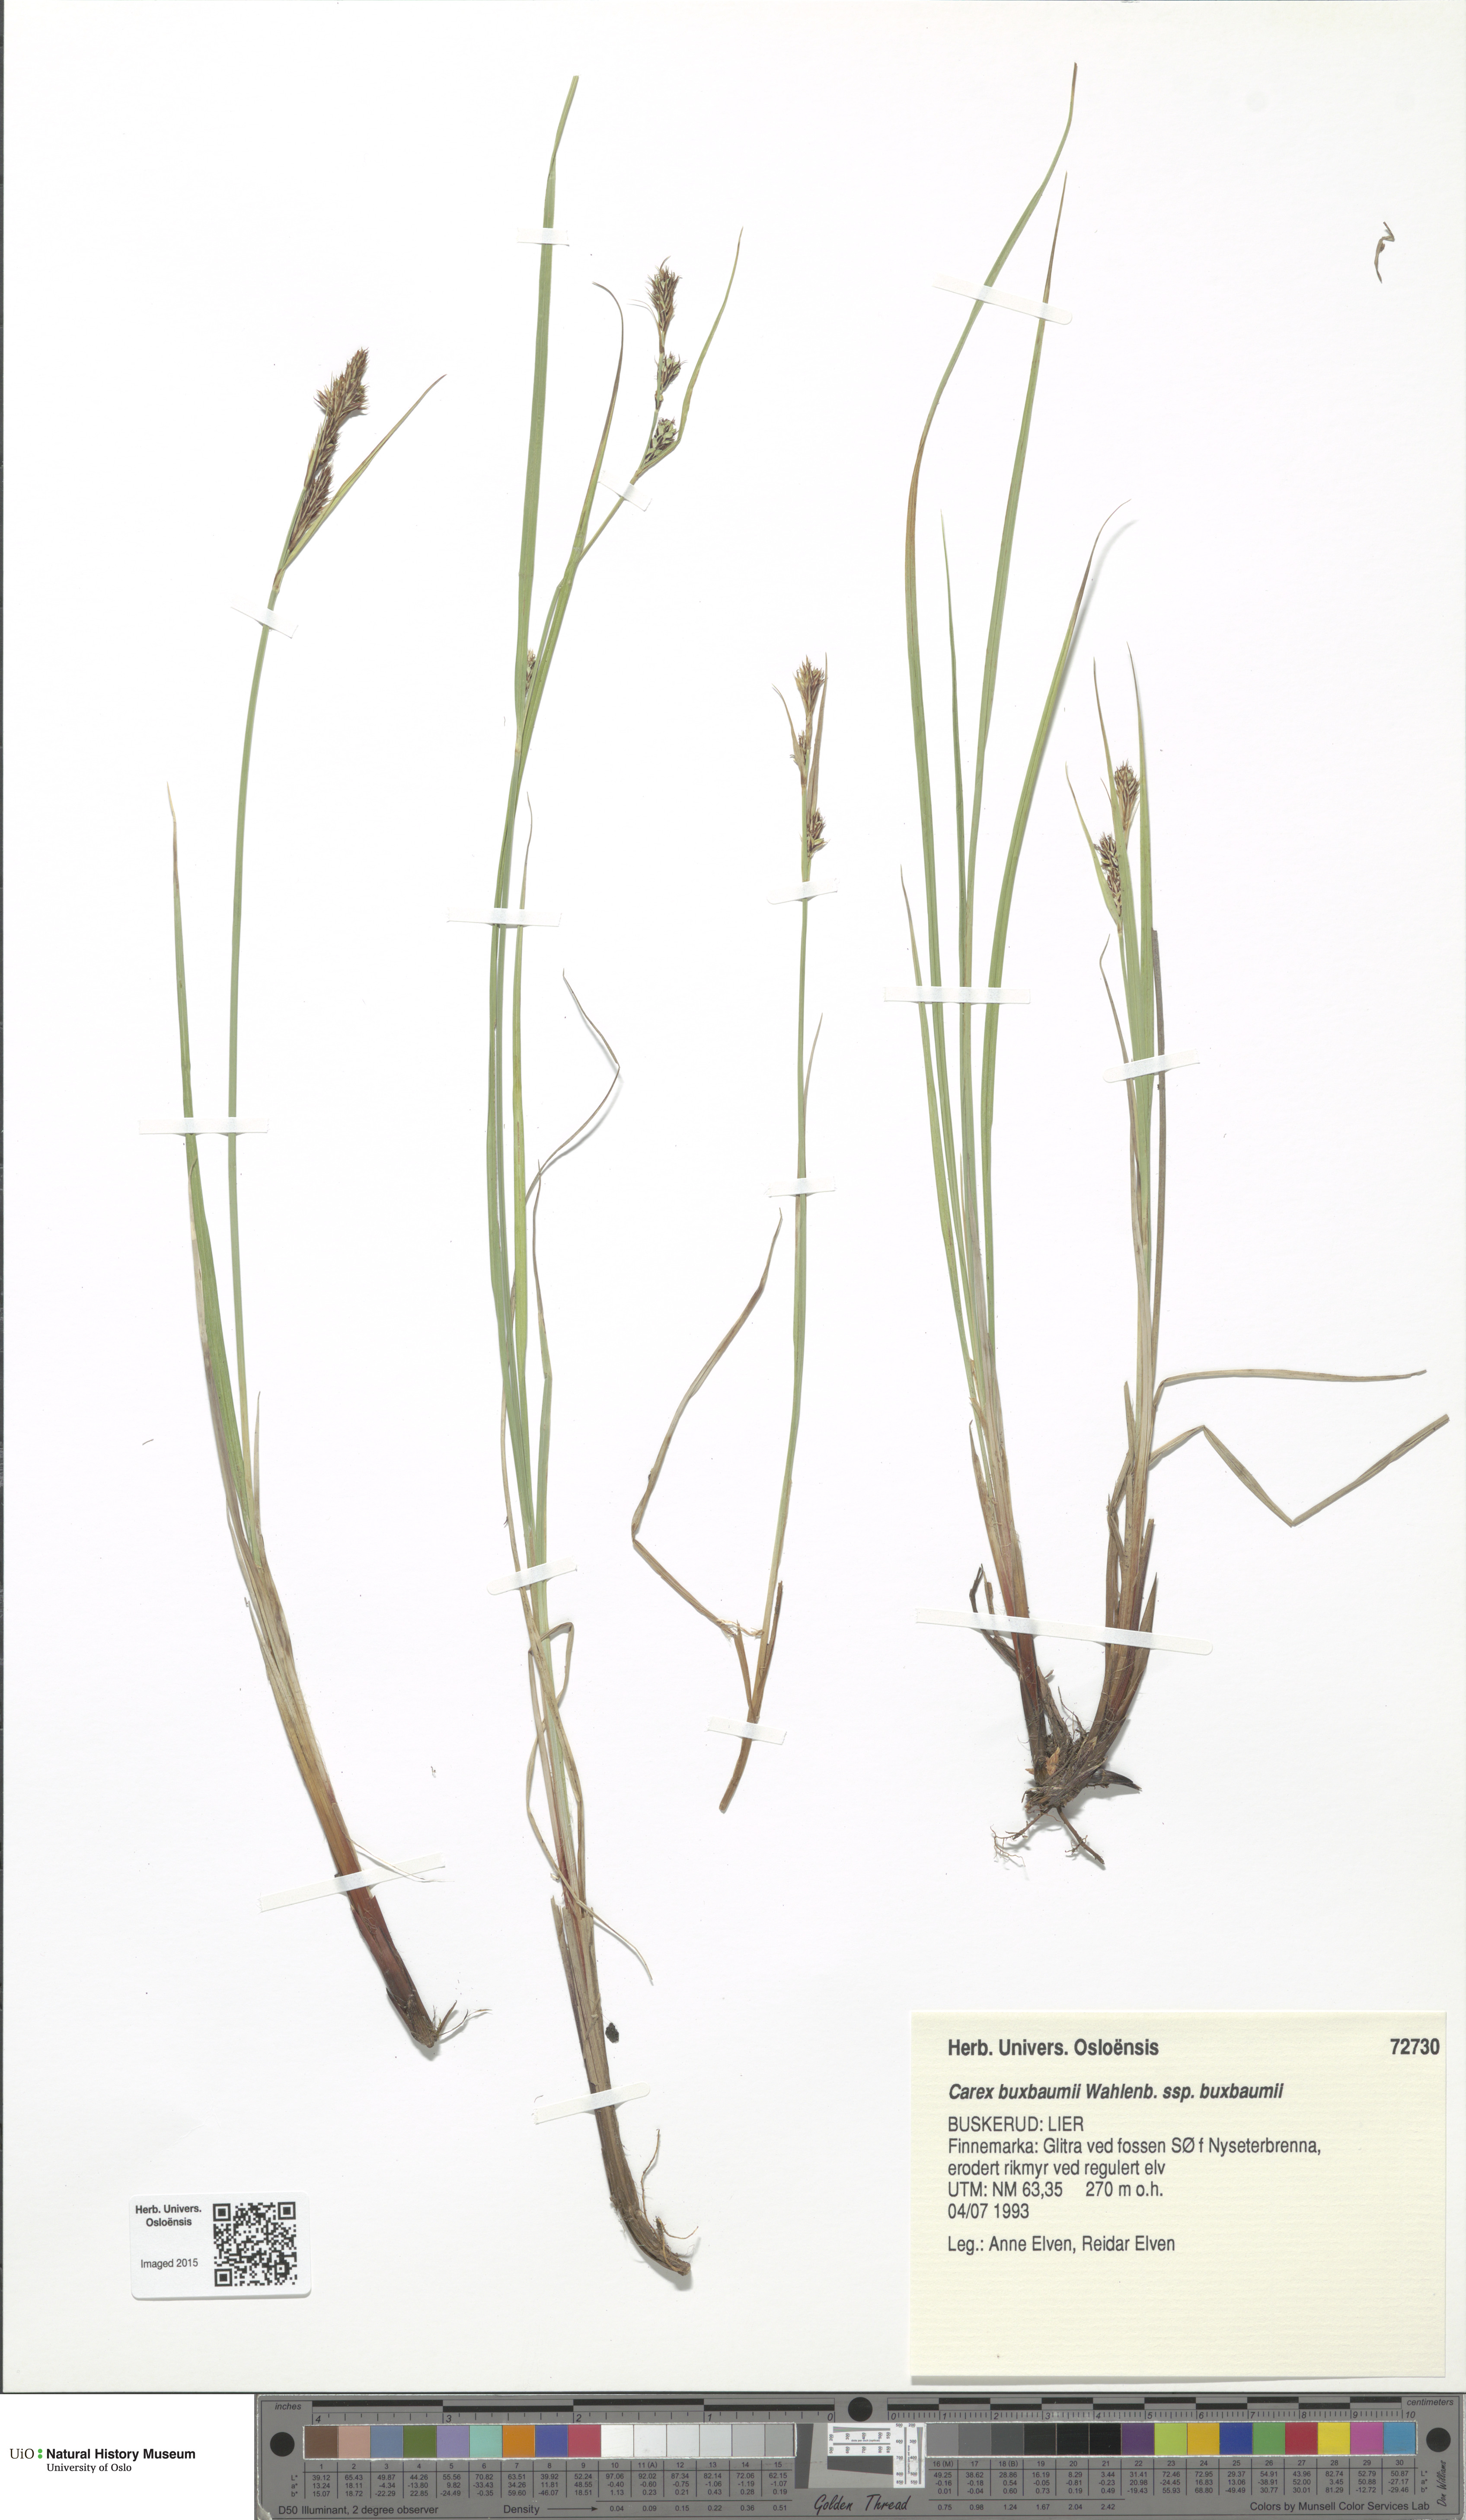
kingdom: Plantae
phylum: Tracheophyta
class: Liliopsida
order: Poales
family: Cyperaceae
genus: Carex
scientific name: Carex buxbaumii
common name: Club sedge
